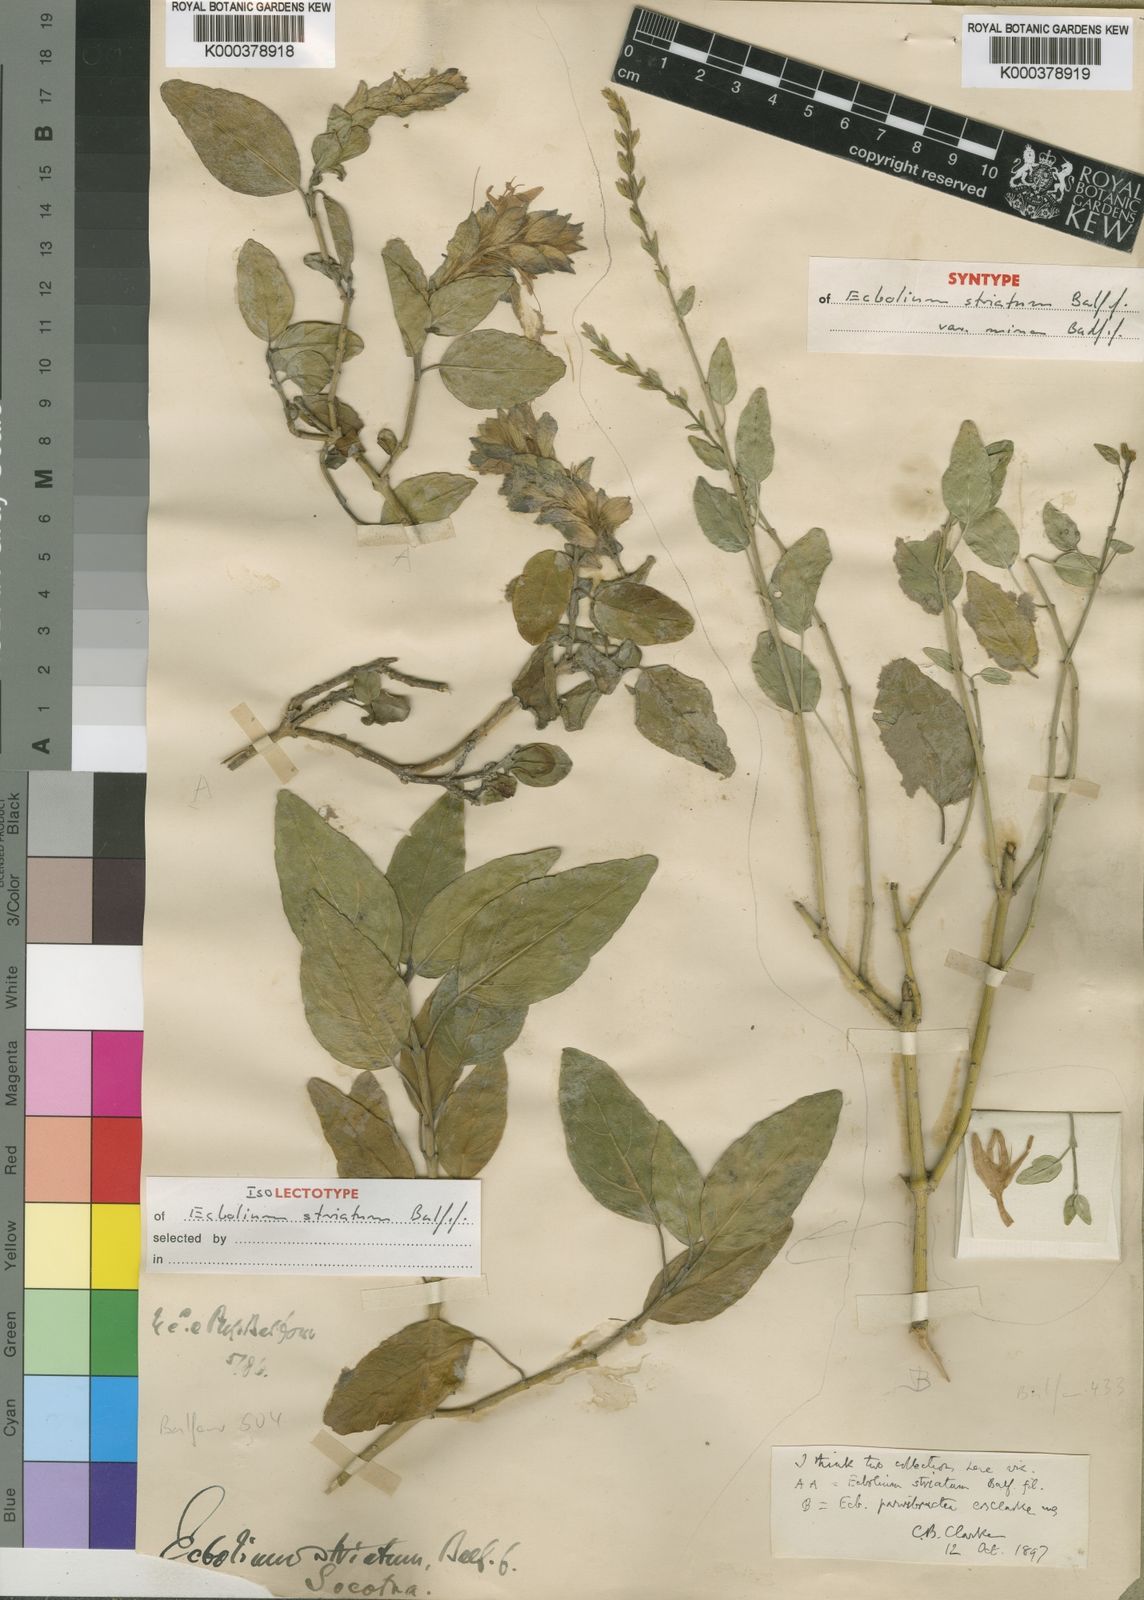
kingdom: Plantae
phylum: Tracheophyta
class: Magnoliopsida
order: Lamiales
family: Acanthaceae
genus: Chorisochora
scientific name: Chorisochora minor
